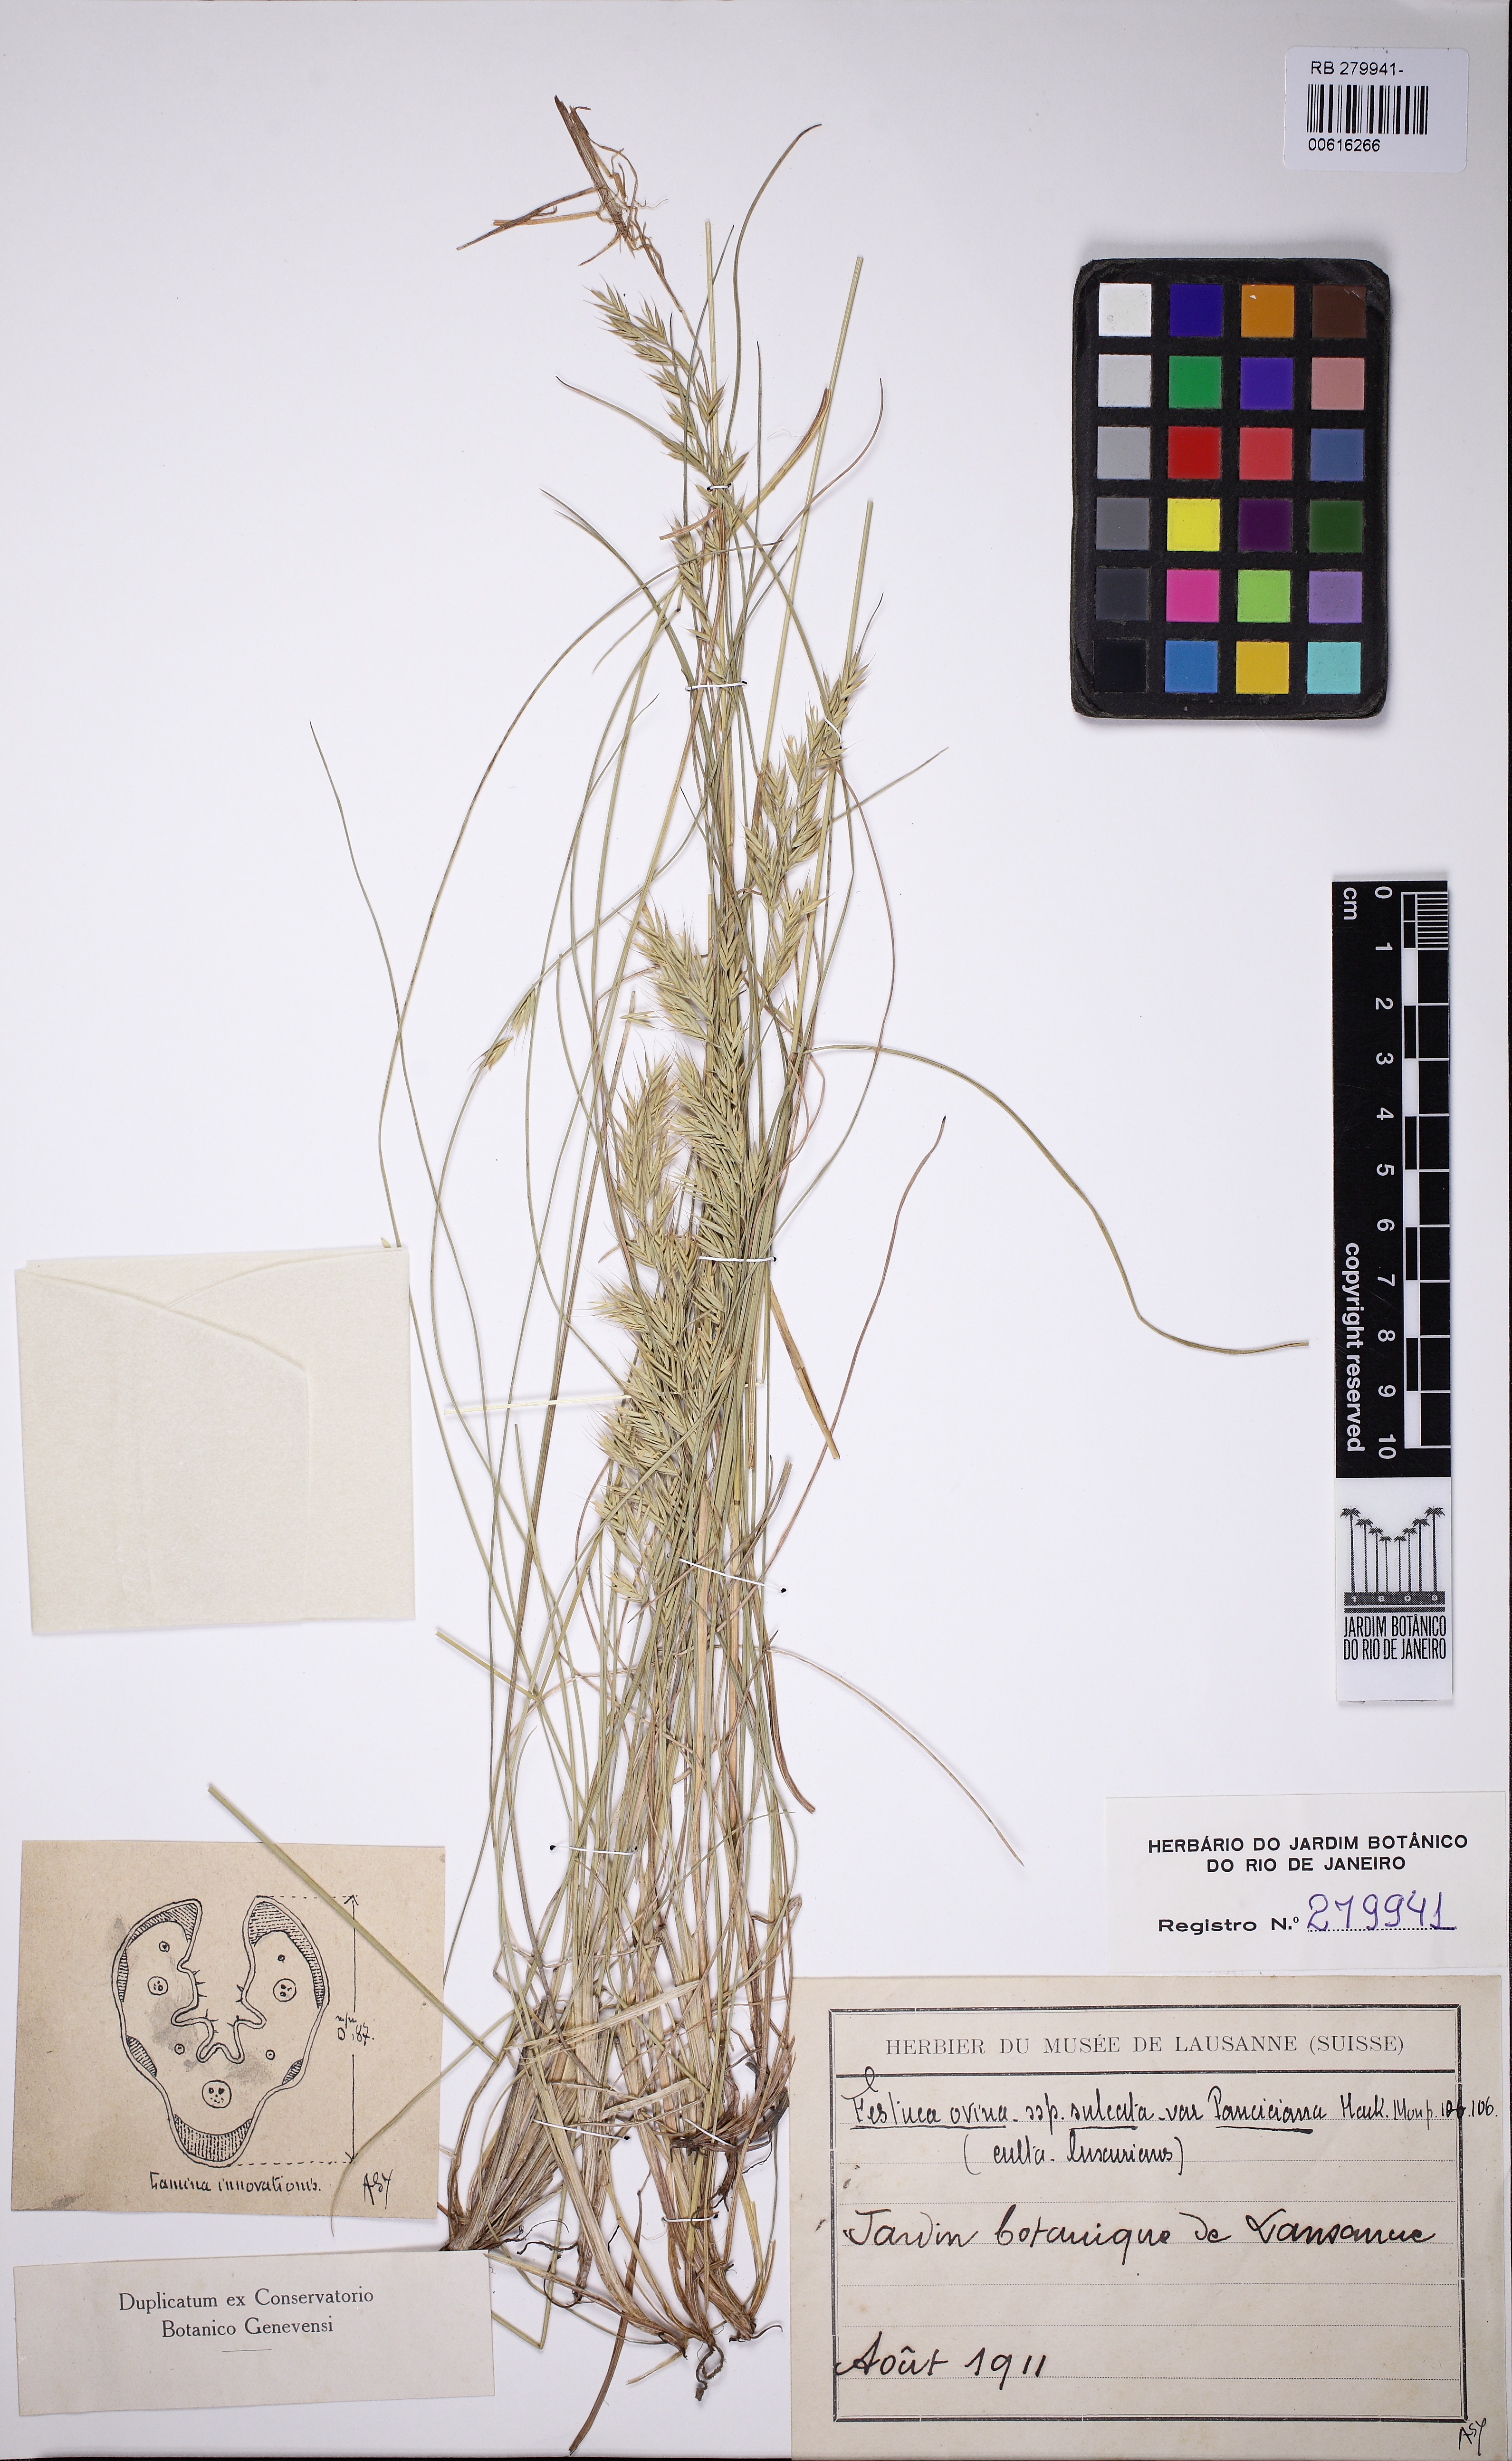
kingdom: Plantae
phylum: Tracheophyta
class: Liliopsida
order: Poales
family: Poaceae
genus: Festuca
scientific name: Festuca ovina
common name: Sheep fescue
